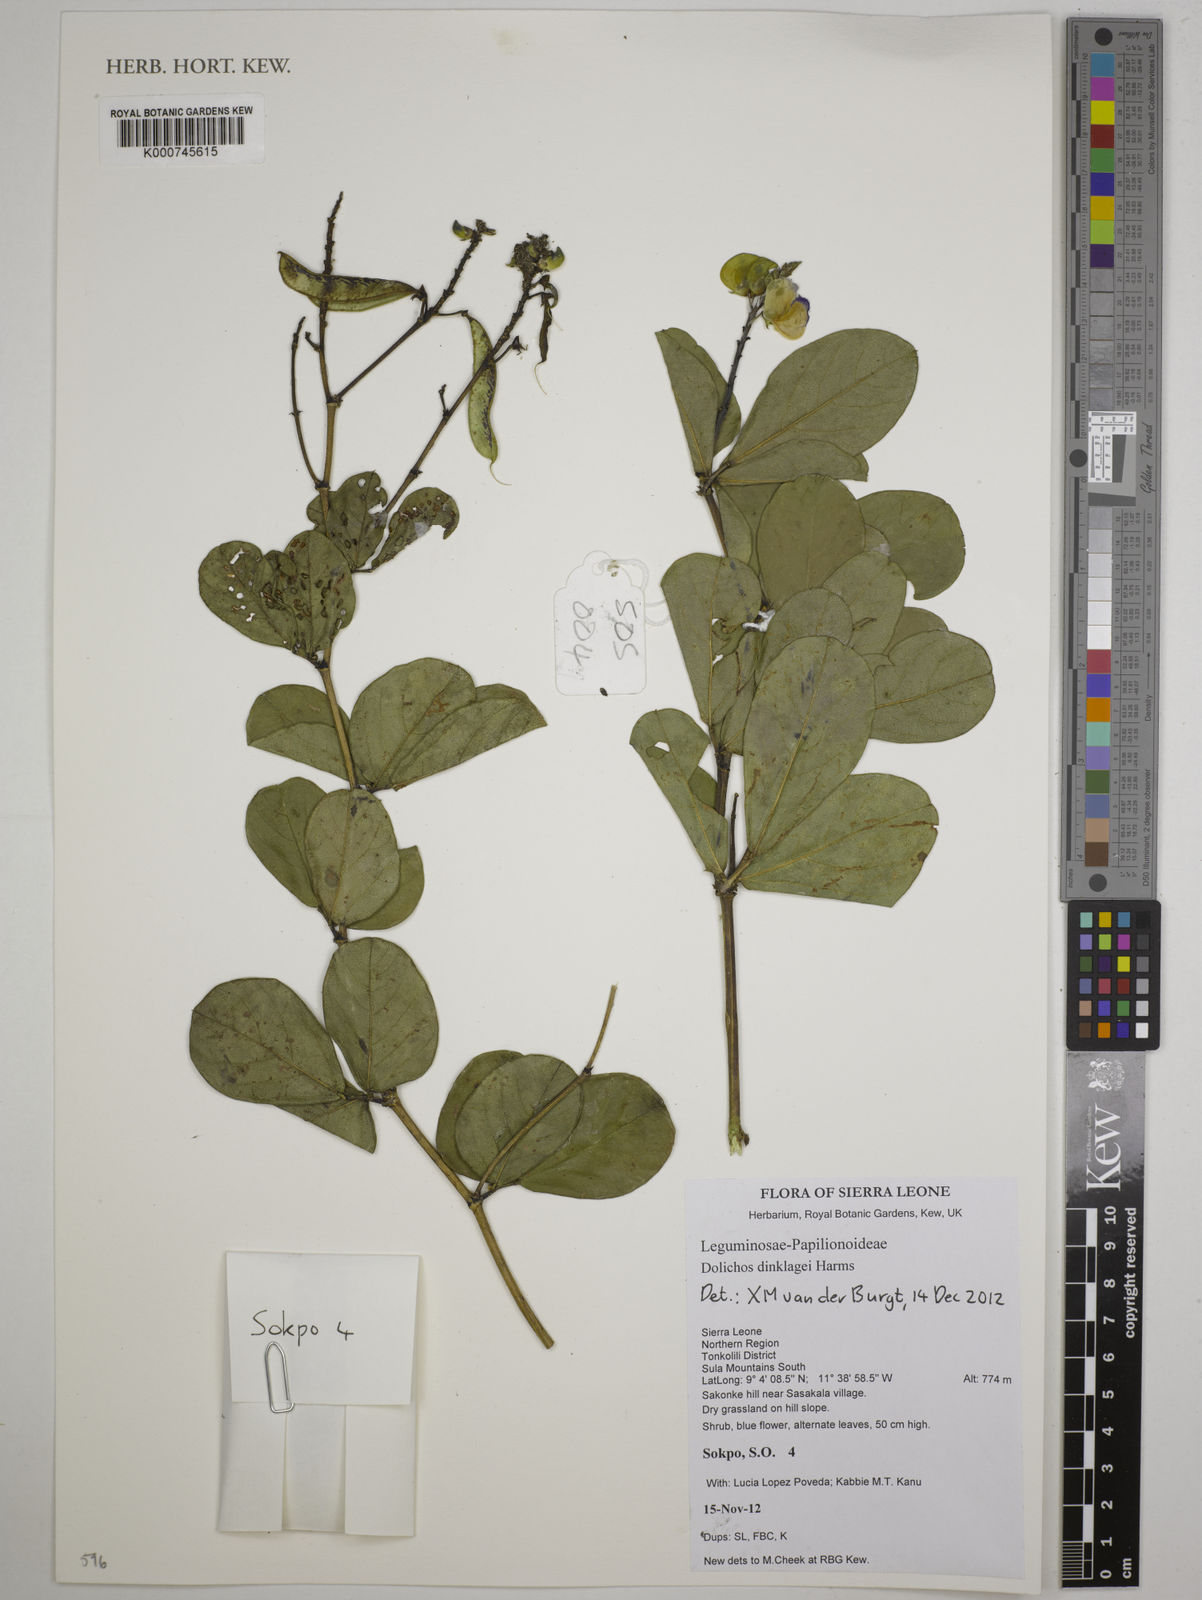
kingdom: Plantae
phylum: Tracheophyta
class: Magnoliopsida
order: Fabales
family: Fabaceae
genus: Dolichos
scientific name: Dolichos dinklagei
